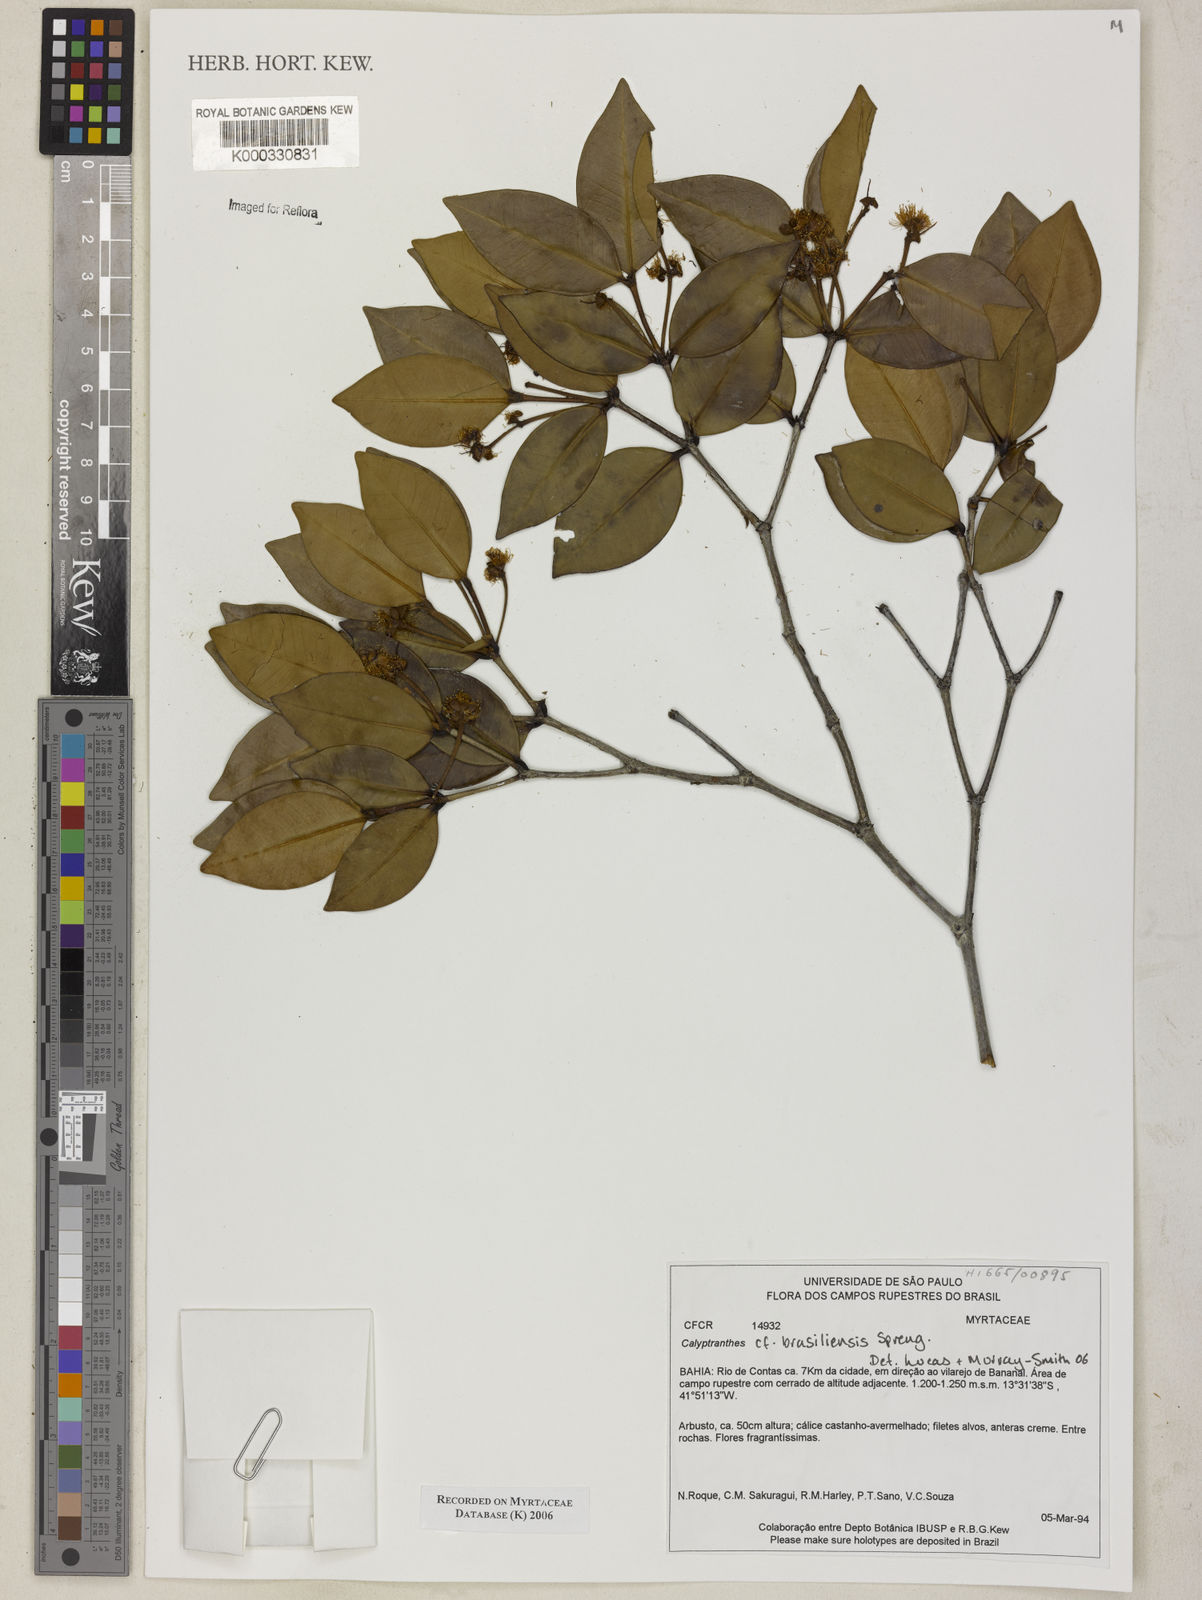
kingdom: Plantae
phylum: Tracheophyta
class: Magnoliopsida
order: Myrtales
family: Myrtaceae
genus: Myrcia
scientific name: Myrcia neobrasiliensis
